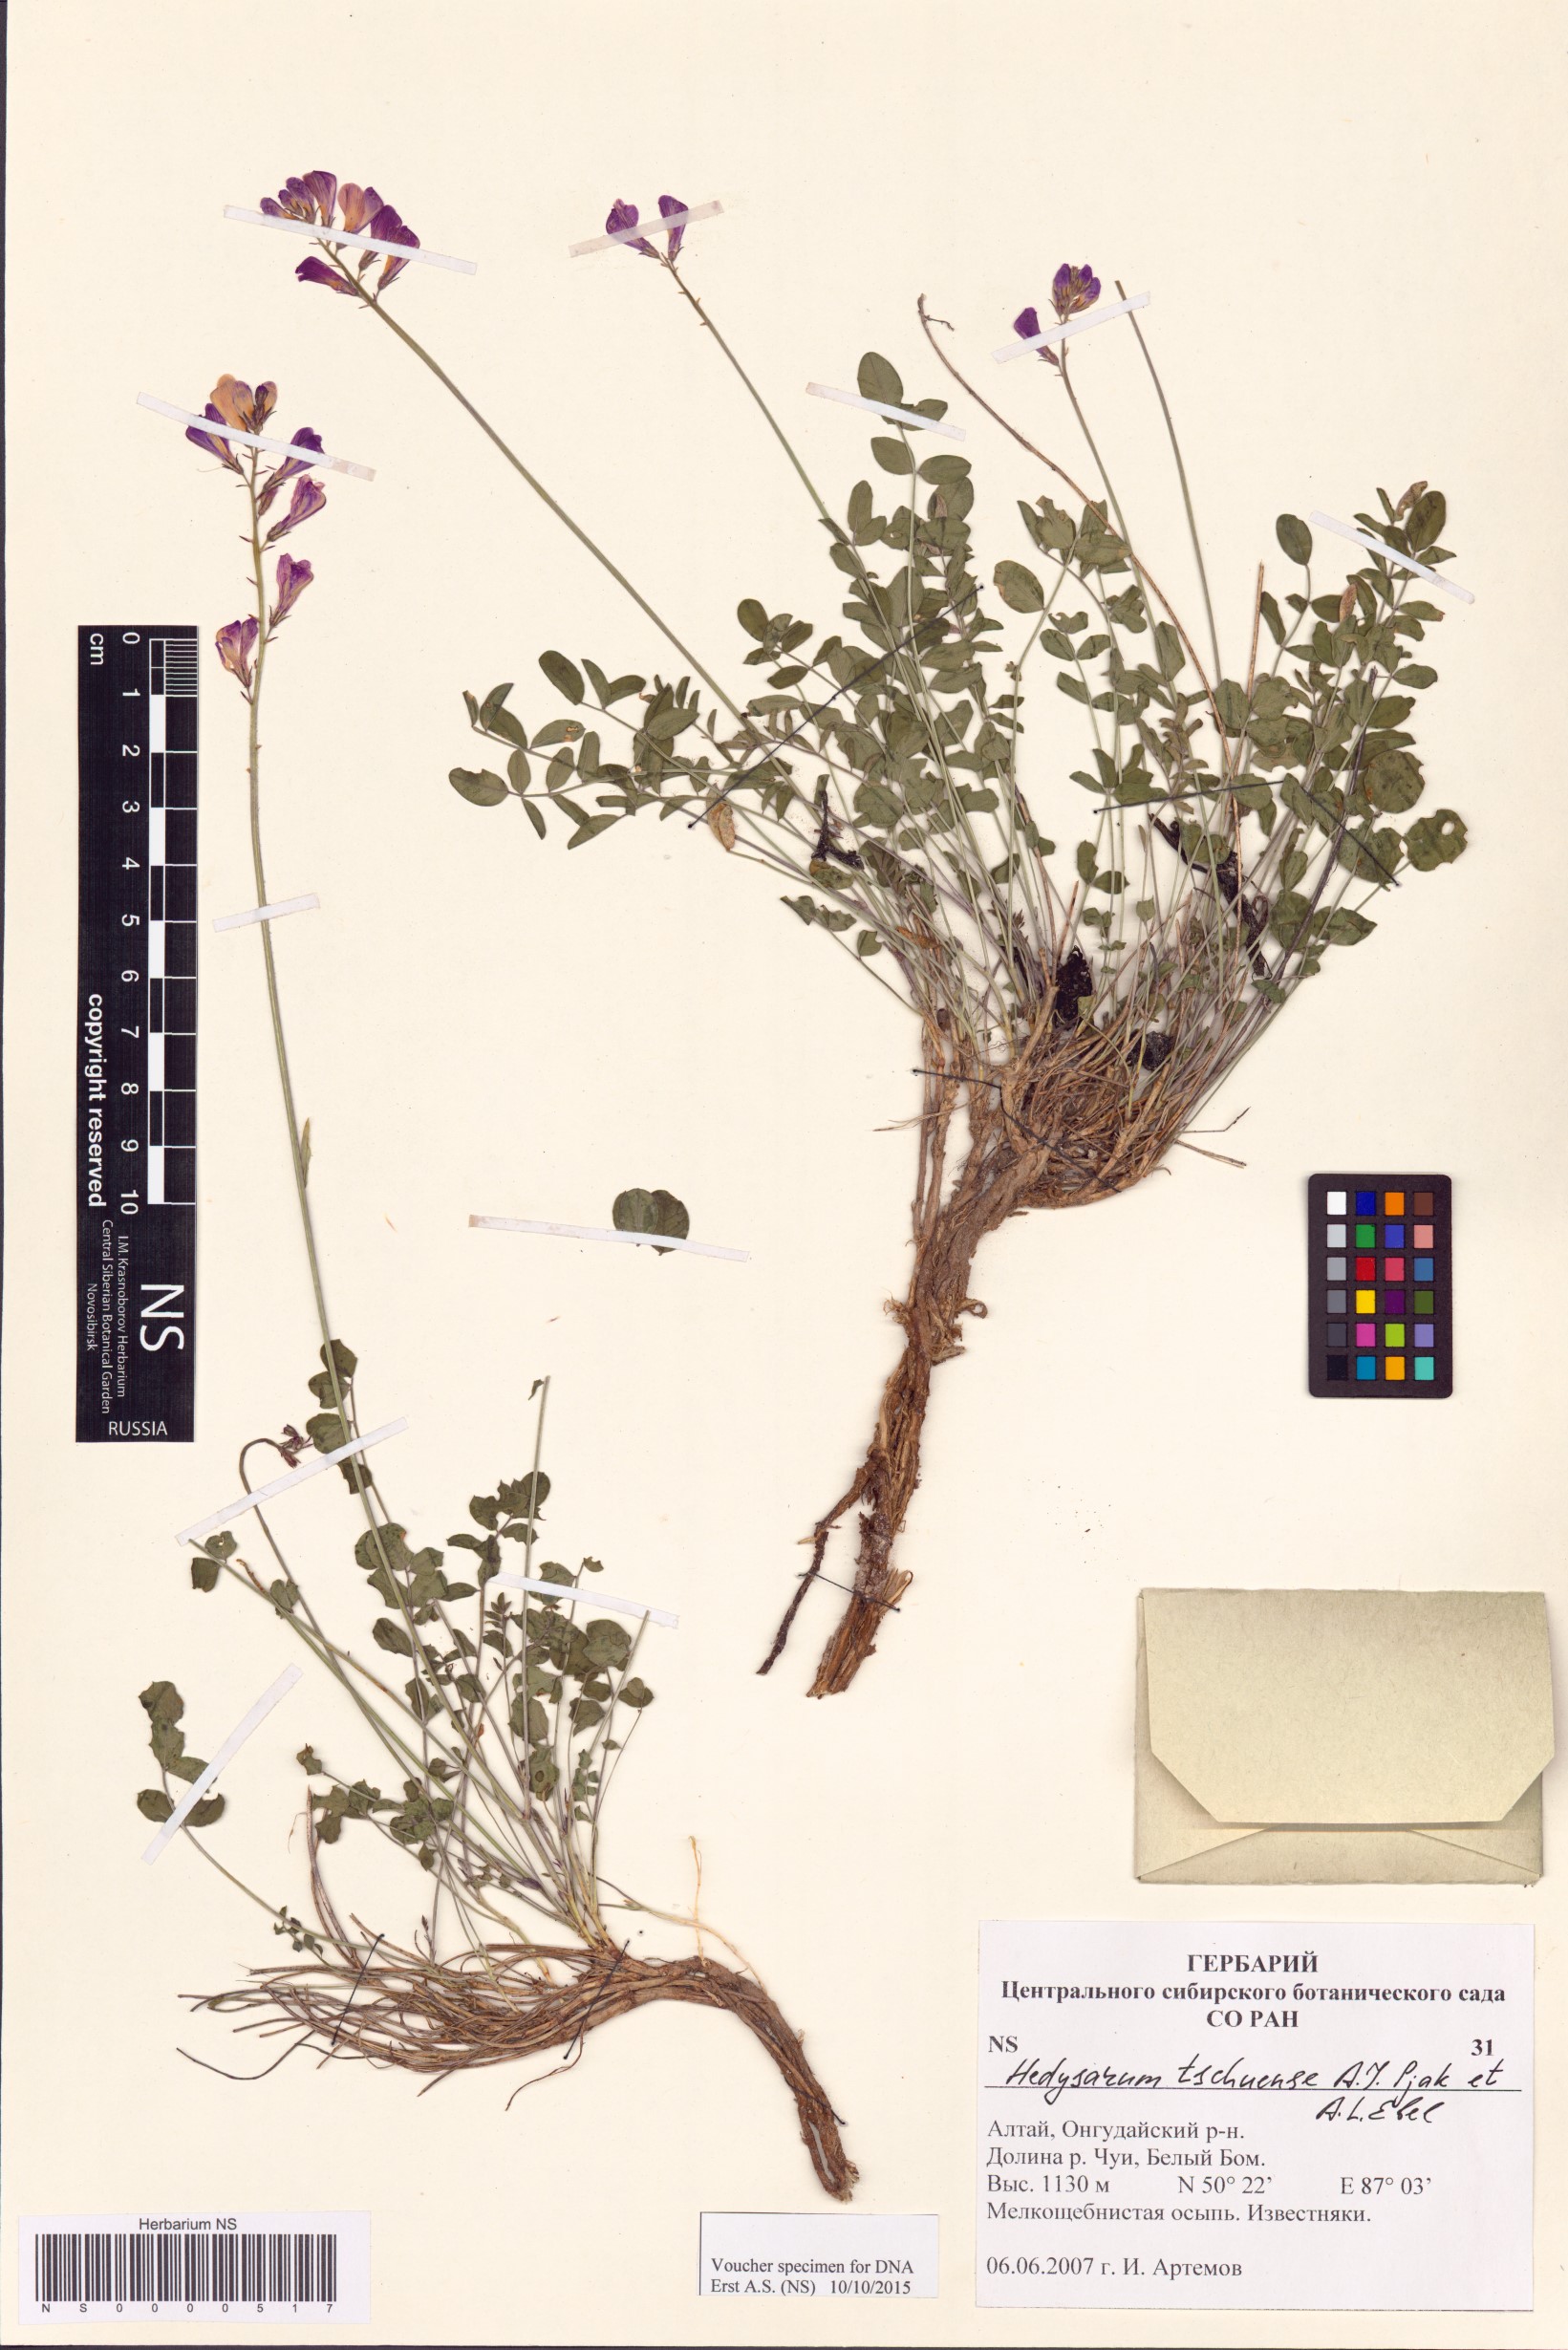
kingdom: Plantae
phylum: Tracheophyta
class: Magnoliopsida
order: Fabales
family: Fabaceae
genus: Hedysarum
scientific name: Hedysarum tschuense
